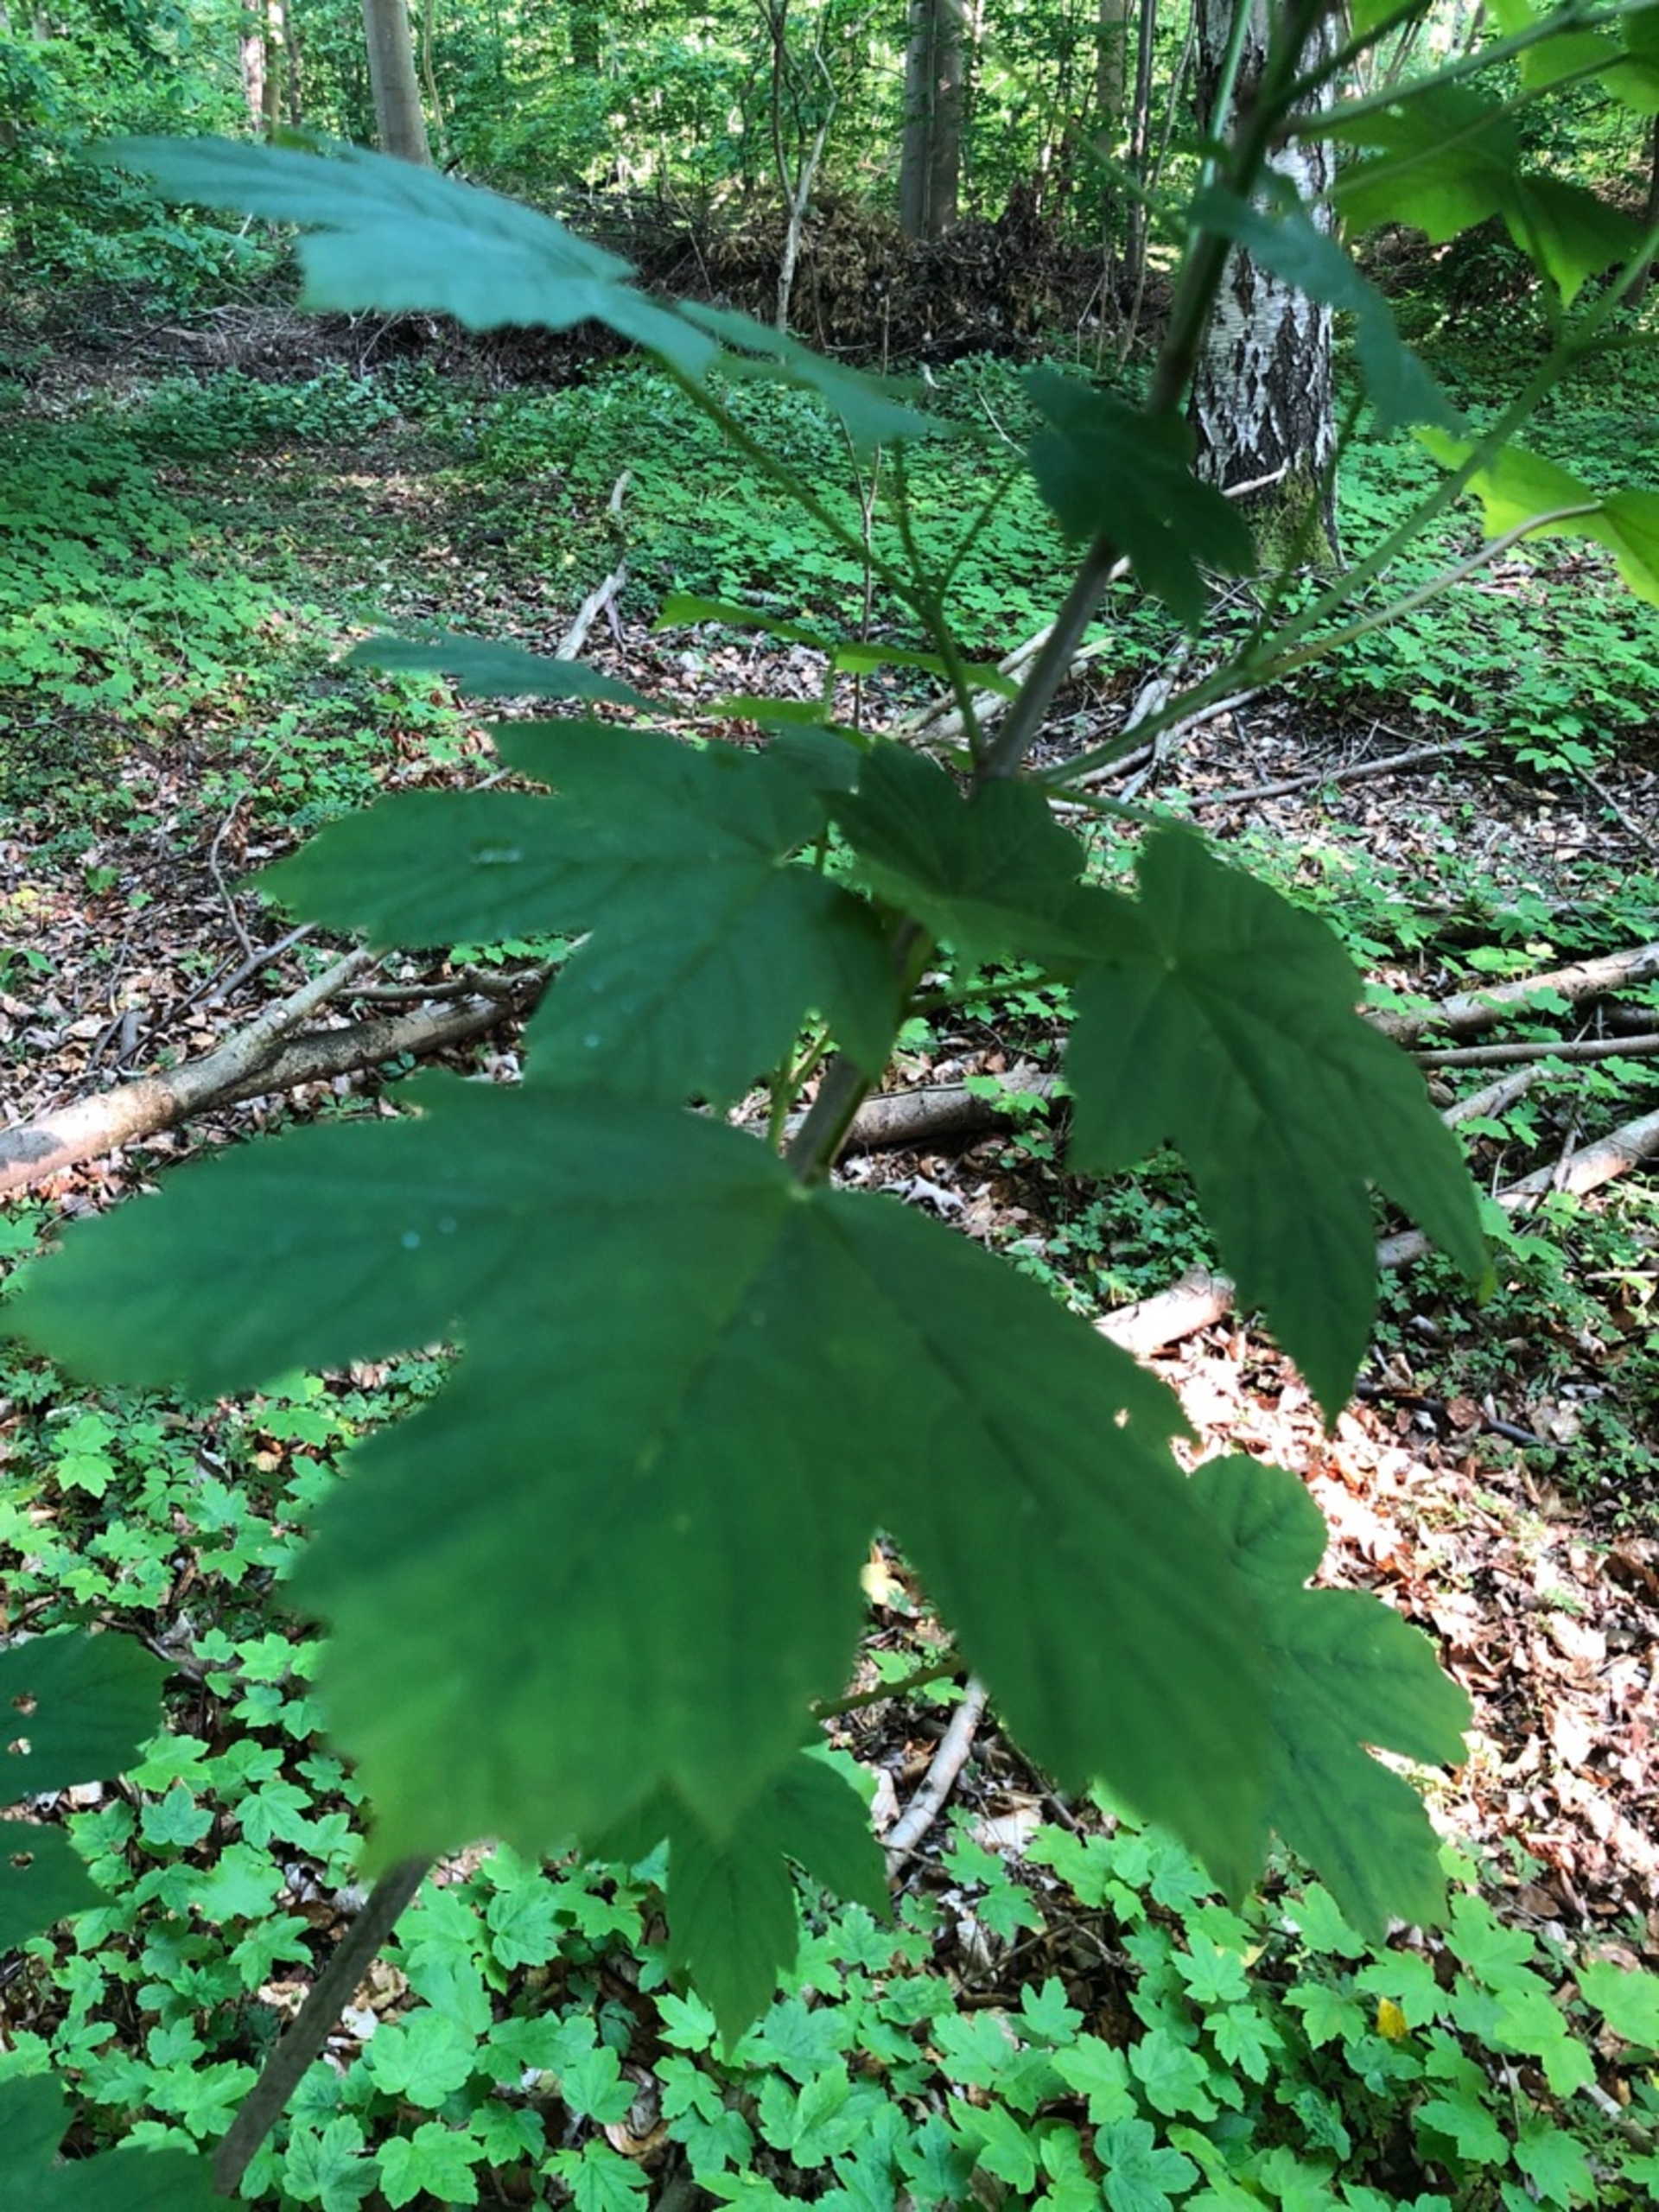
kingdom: Plantae
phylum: Tracheophyta
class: Magnoliopsida
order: Sapindales
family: Sapindaceae
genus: Acer
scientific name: Acer pseudoplatanus
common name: Ahorn
